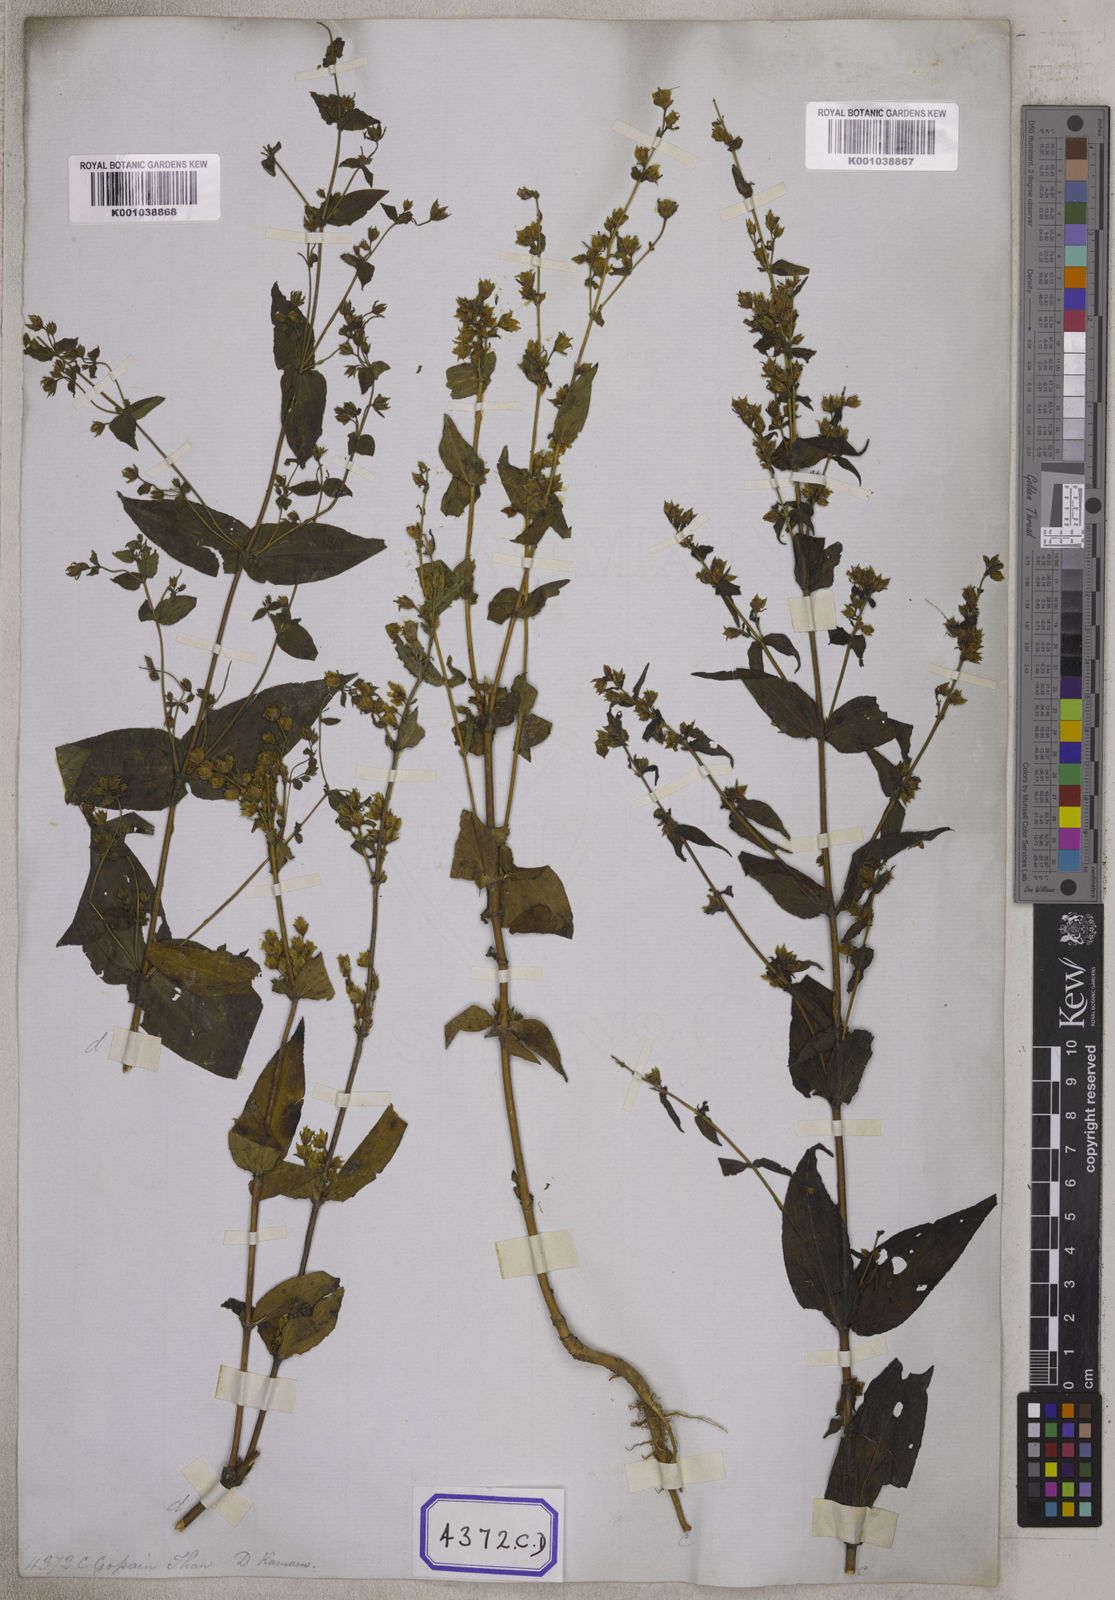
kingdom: Plantae
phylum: Tracheophyta
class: Magnoliopsida
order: Gentianales
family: Gentianaceae
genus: Swertia
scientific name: Swertia chirayita
